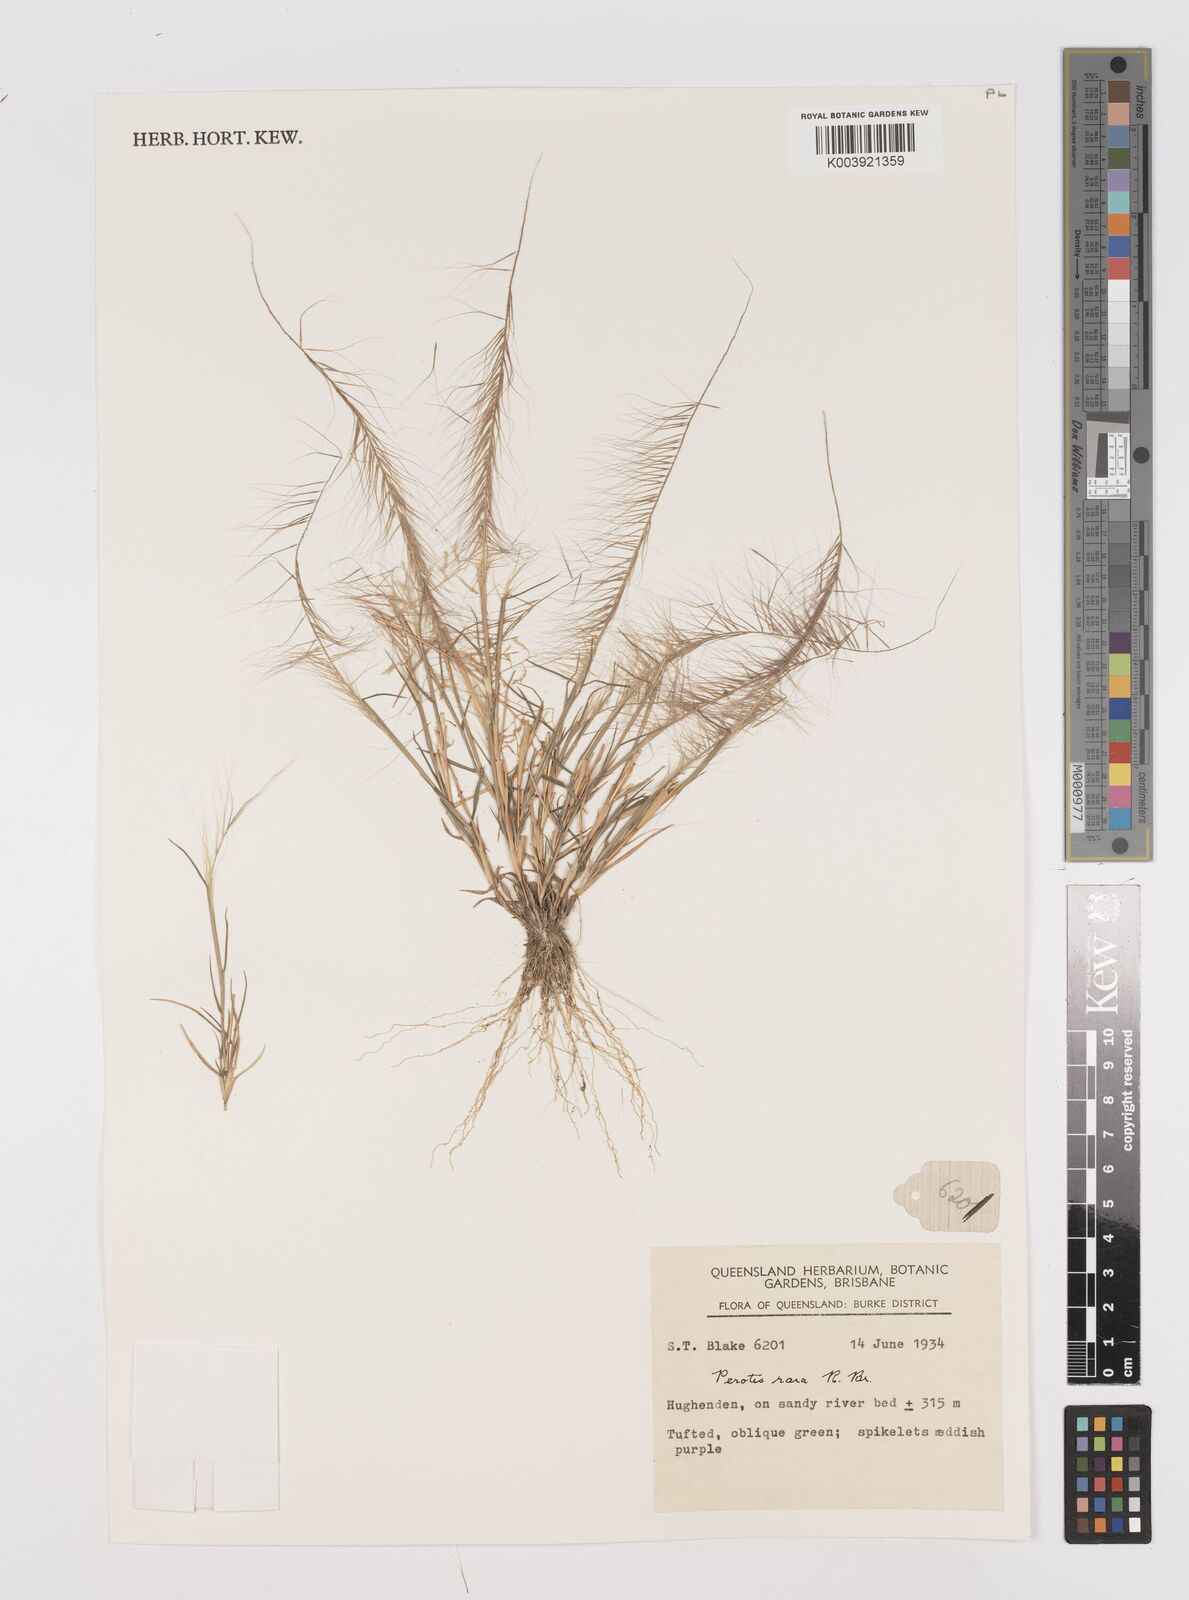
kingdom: Plantae
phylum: Tracheophyta
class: Liliopsida
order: Poales
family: Poaceae
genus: Perotis
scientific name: Perotis rara
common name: Comet grass
